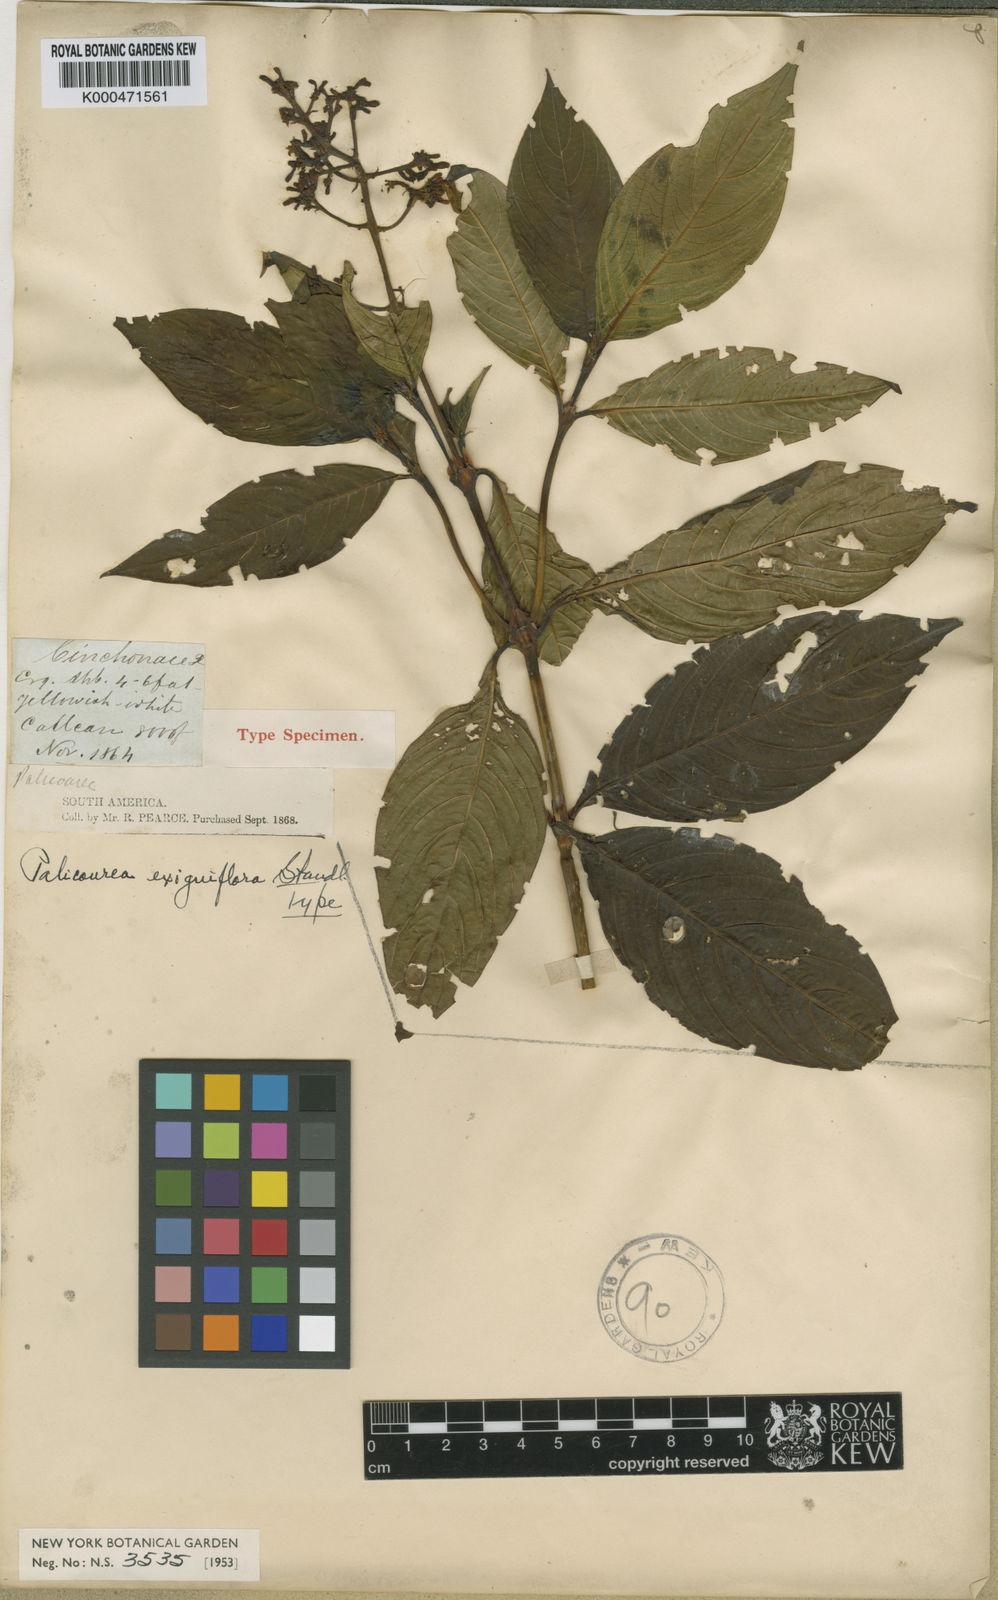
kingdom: Plantae
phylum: Tracheophyta
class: Magnoliopsida
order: Gentianales
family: Rubiaceae
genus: Palicourea
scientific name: Palicourea falcata
